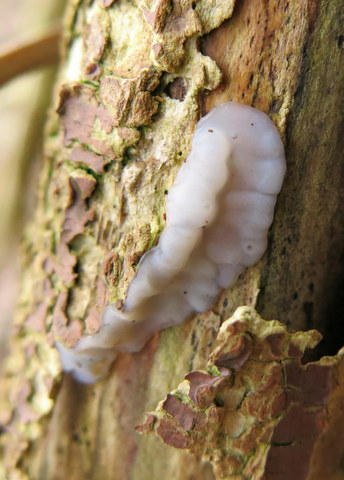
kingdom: Fungi
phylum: Basidiomycota
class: Agaricomycetes
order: Auriculariales
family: Auriculariaceae
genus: Exidia
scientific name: Exidia thuretiana
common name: hvidlig bævretop
